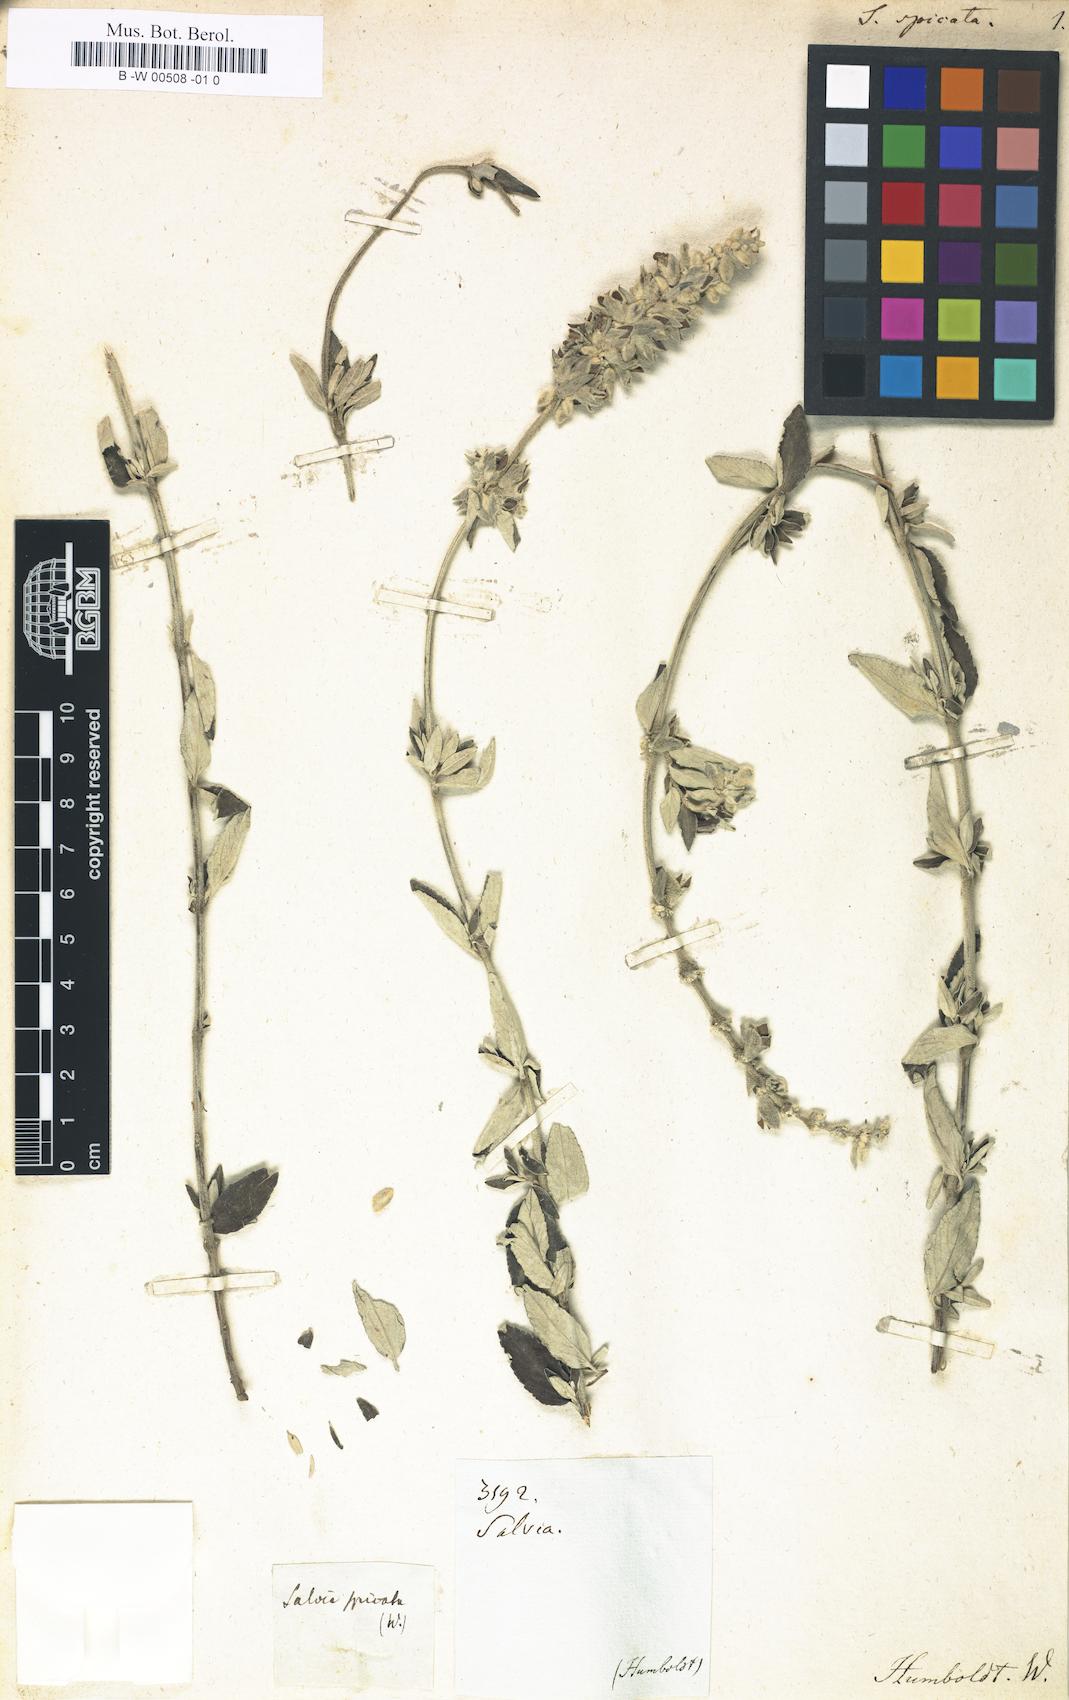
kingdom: Plantae
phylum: Tracheophyta
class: Magnoliopsida
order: Lamiales
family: Lamiaceae
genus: Salvia
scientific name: Salvia flocculosa
